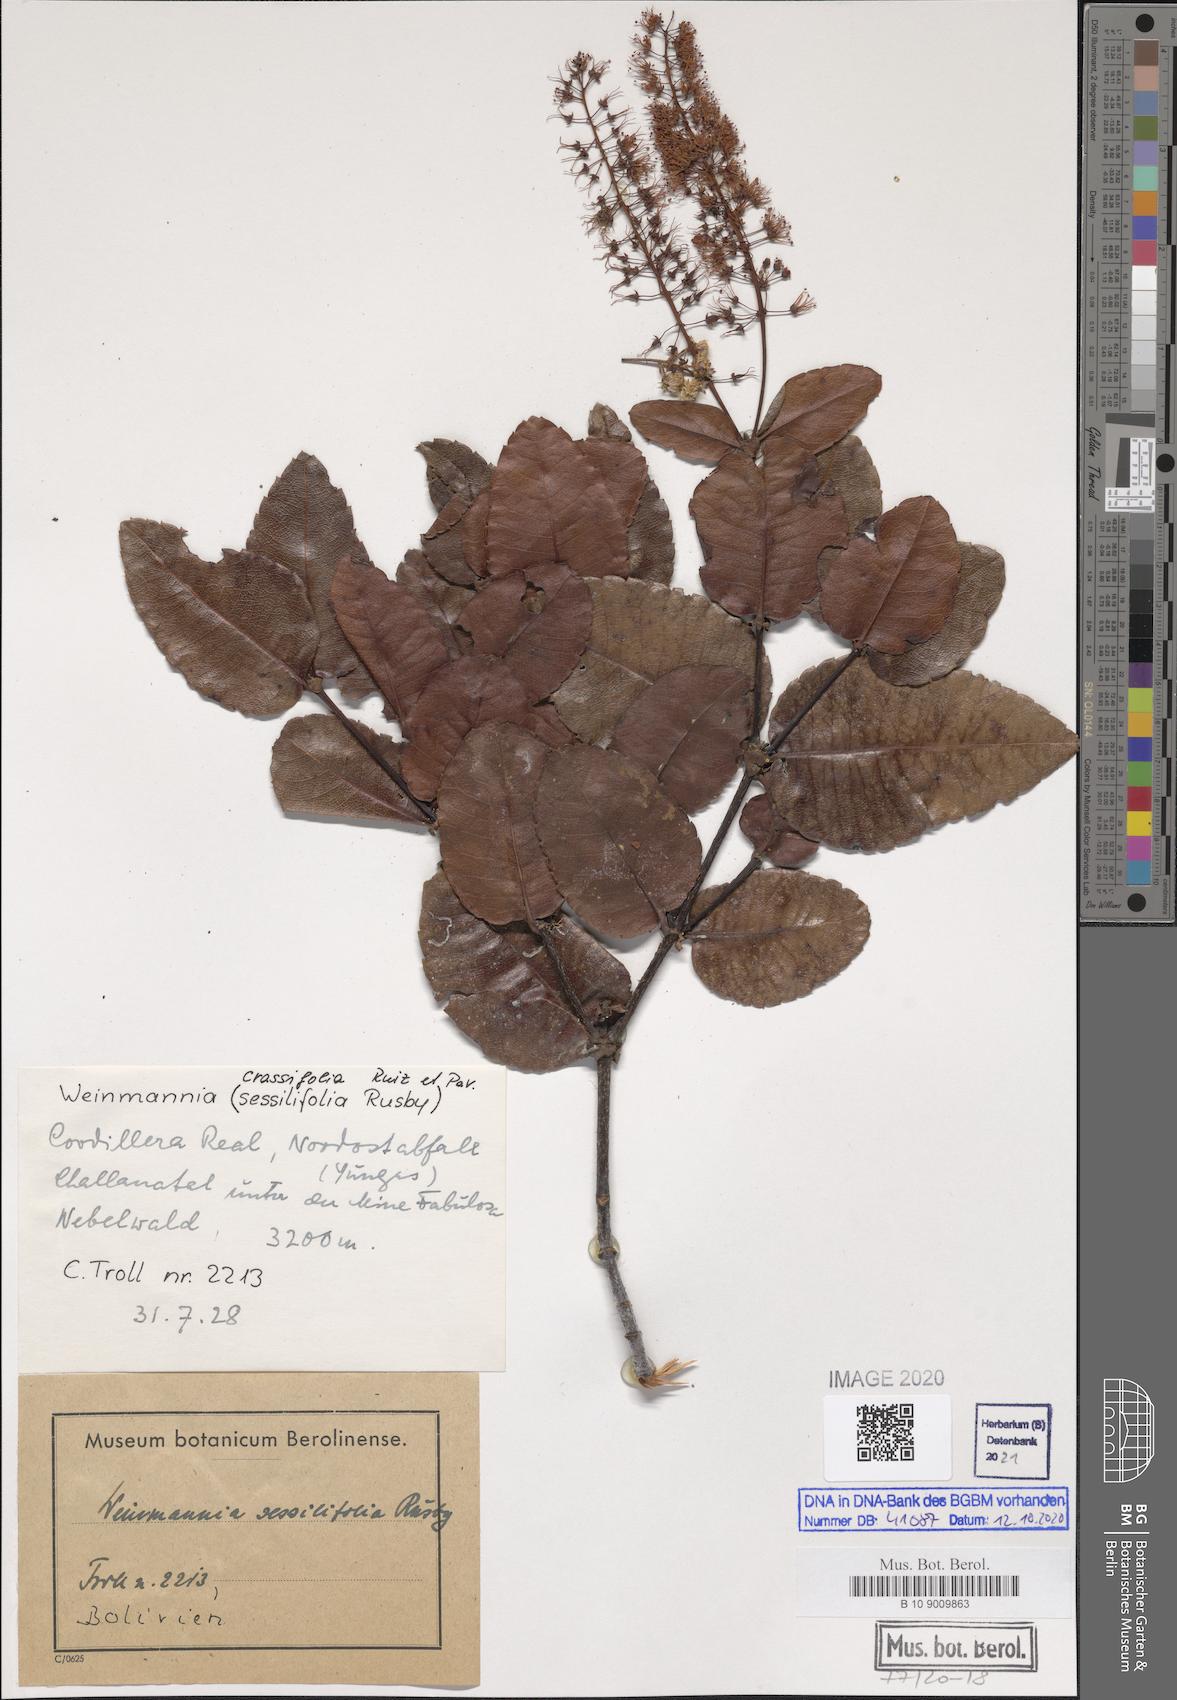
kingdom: Plantae
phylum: Tracheophyta
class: Magnoliopsida
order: Oxalidales
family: Cunoniaceae
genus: Weinmannia
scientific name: Weinmannia crassifolia
